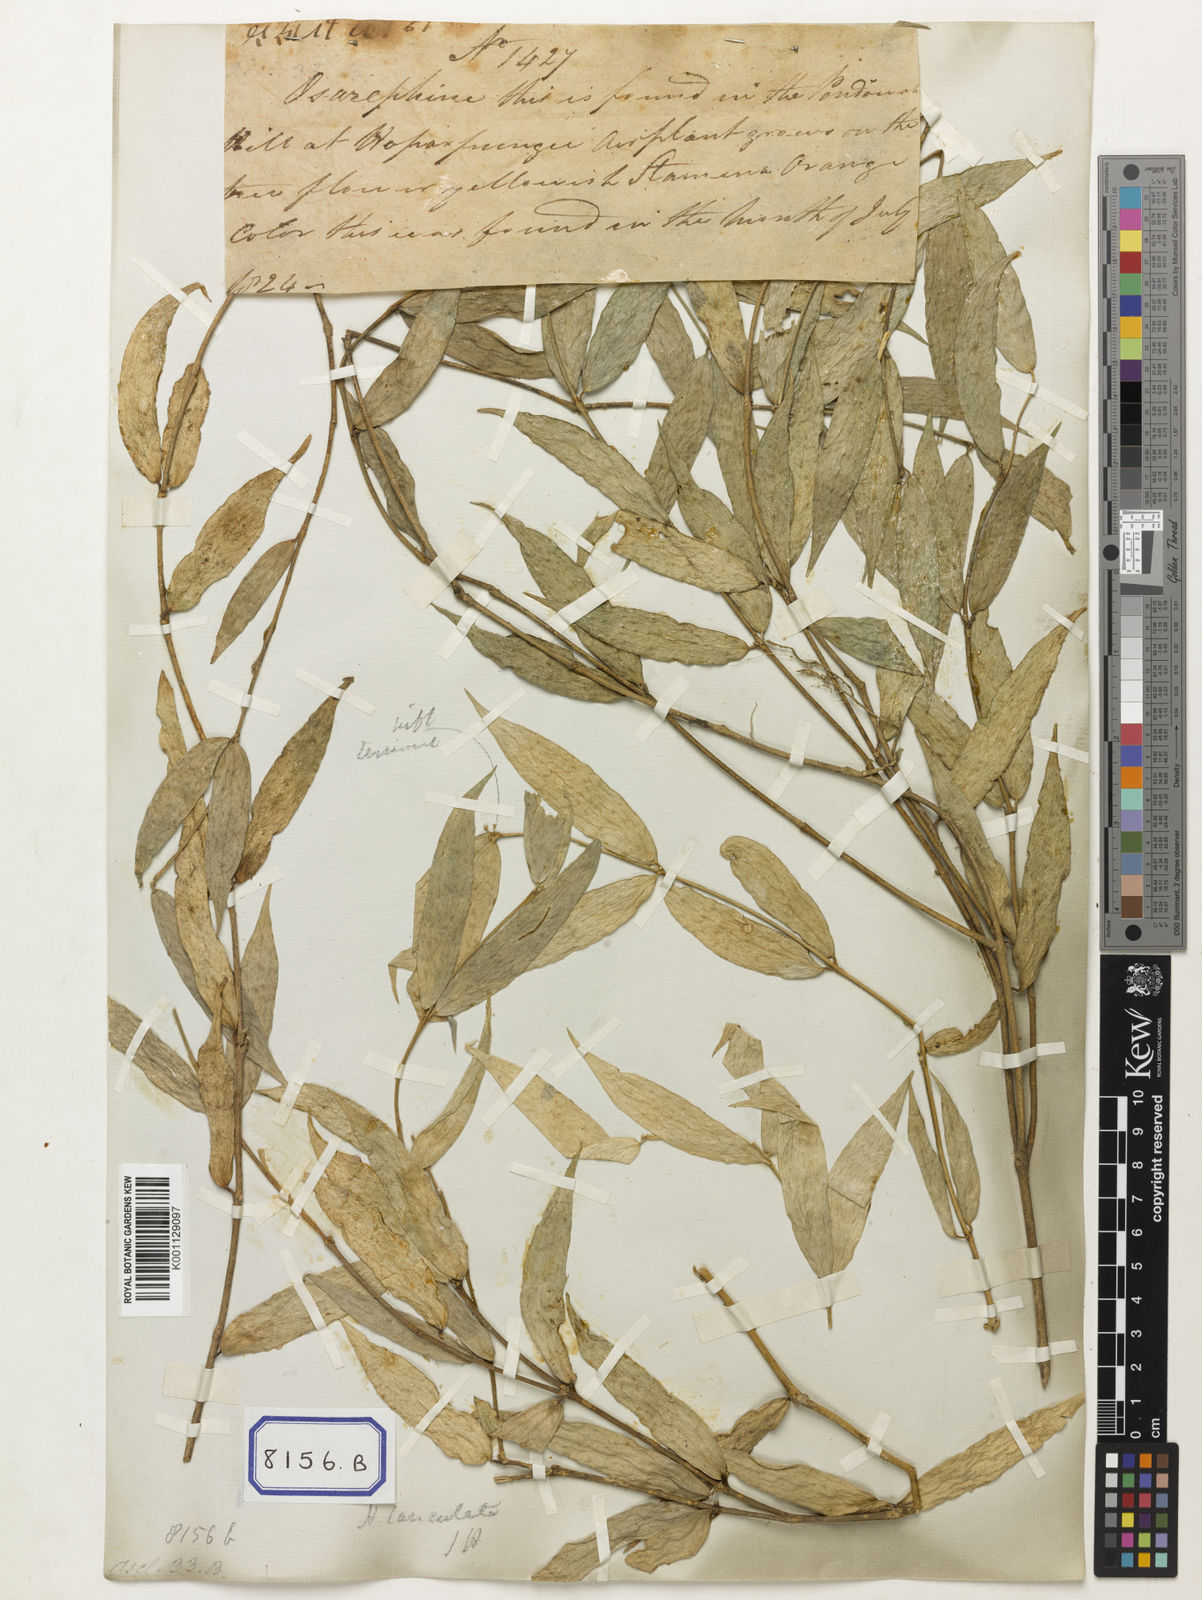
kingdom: Plantae
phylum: Tracheophyta
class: Magnoliopsida
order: Gentianales
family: Apocynaceae
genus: Hoya
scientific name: Hoya parviflora
